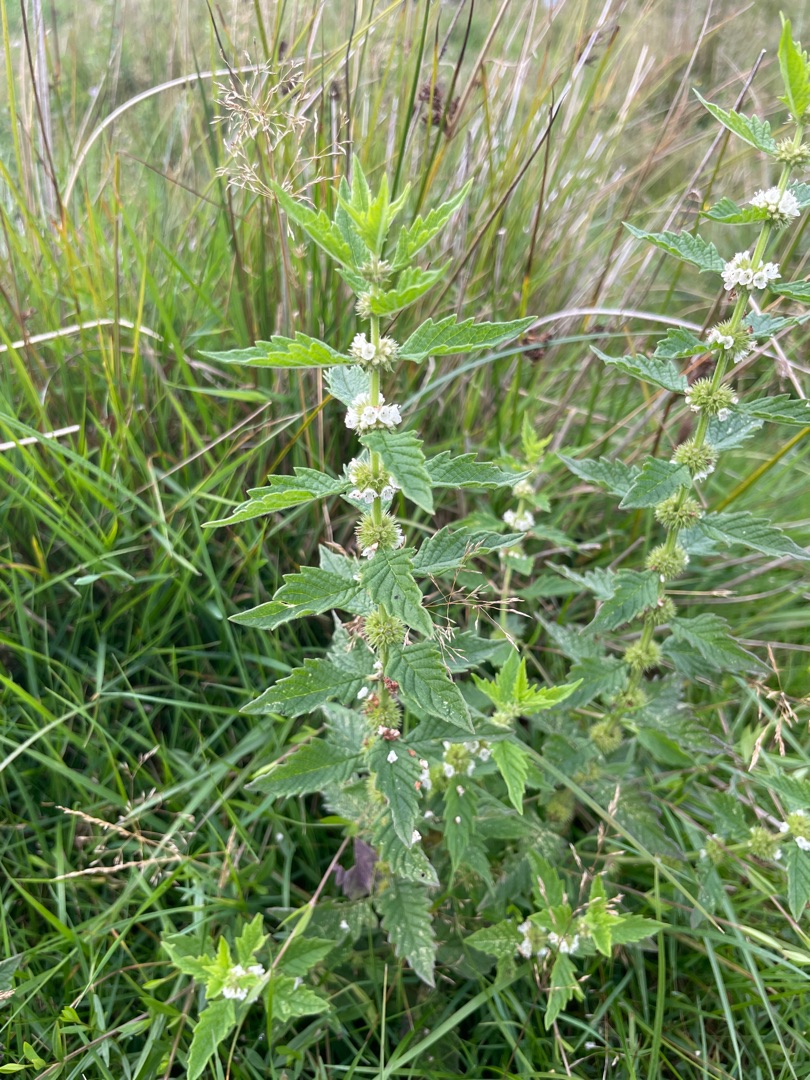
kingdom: Plantae
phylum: Tracheophyta
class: Magnoliopsida
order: Lamiales
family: Lamiaceae
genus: Lycopus
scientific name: Lycopus europaeus
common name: Sværtevæld
